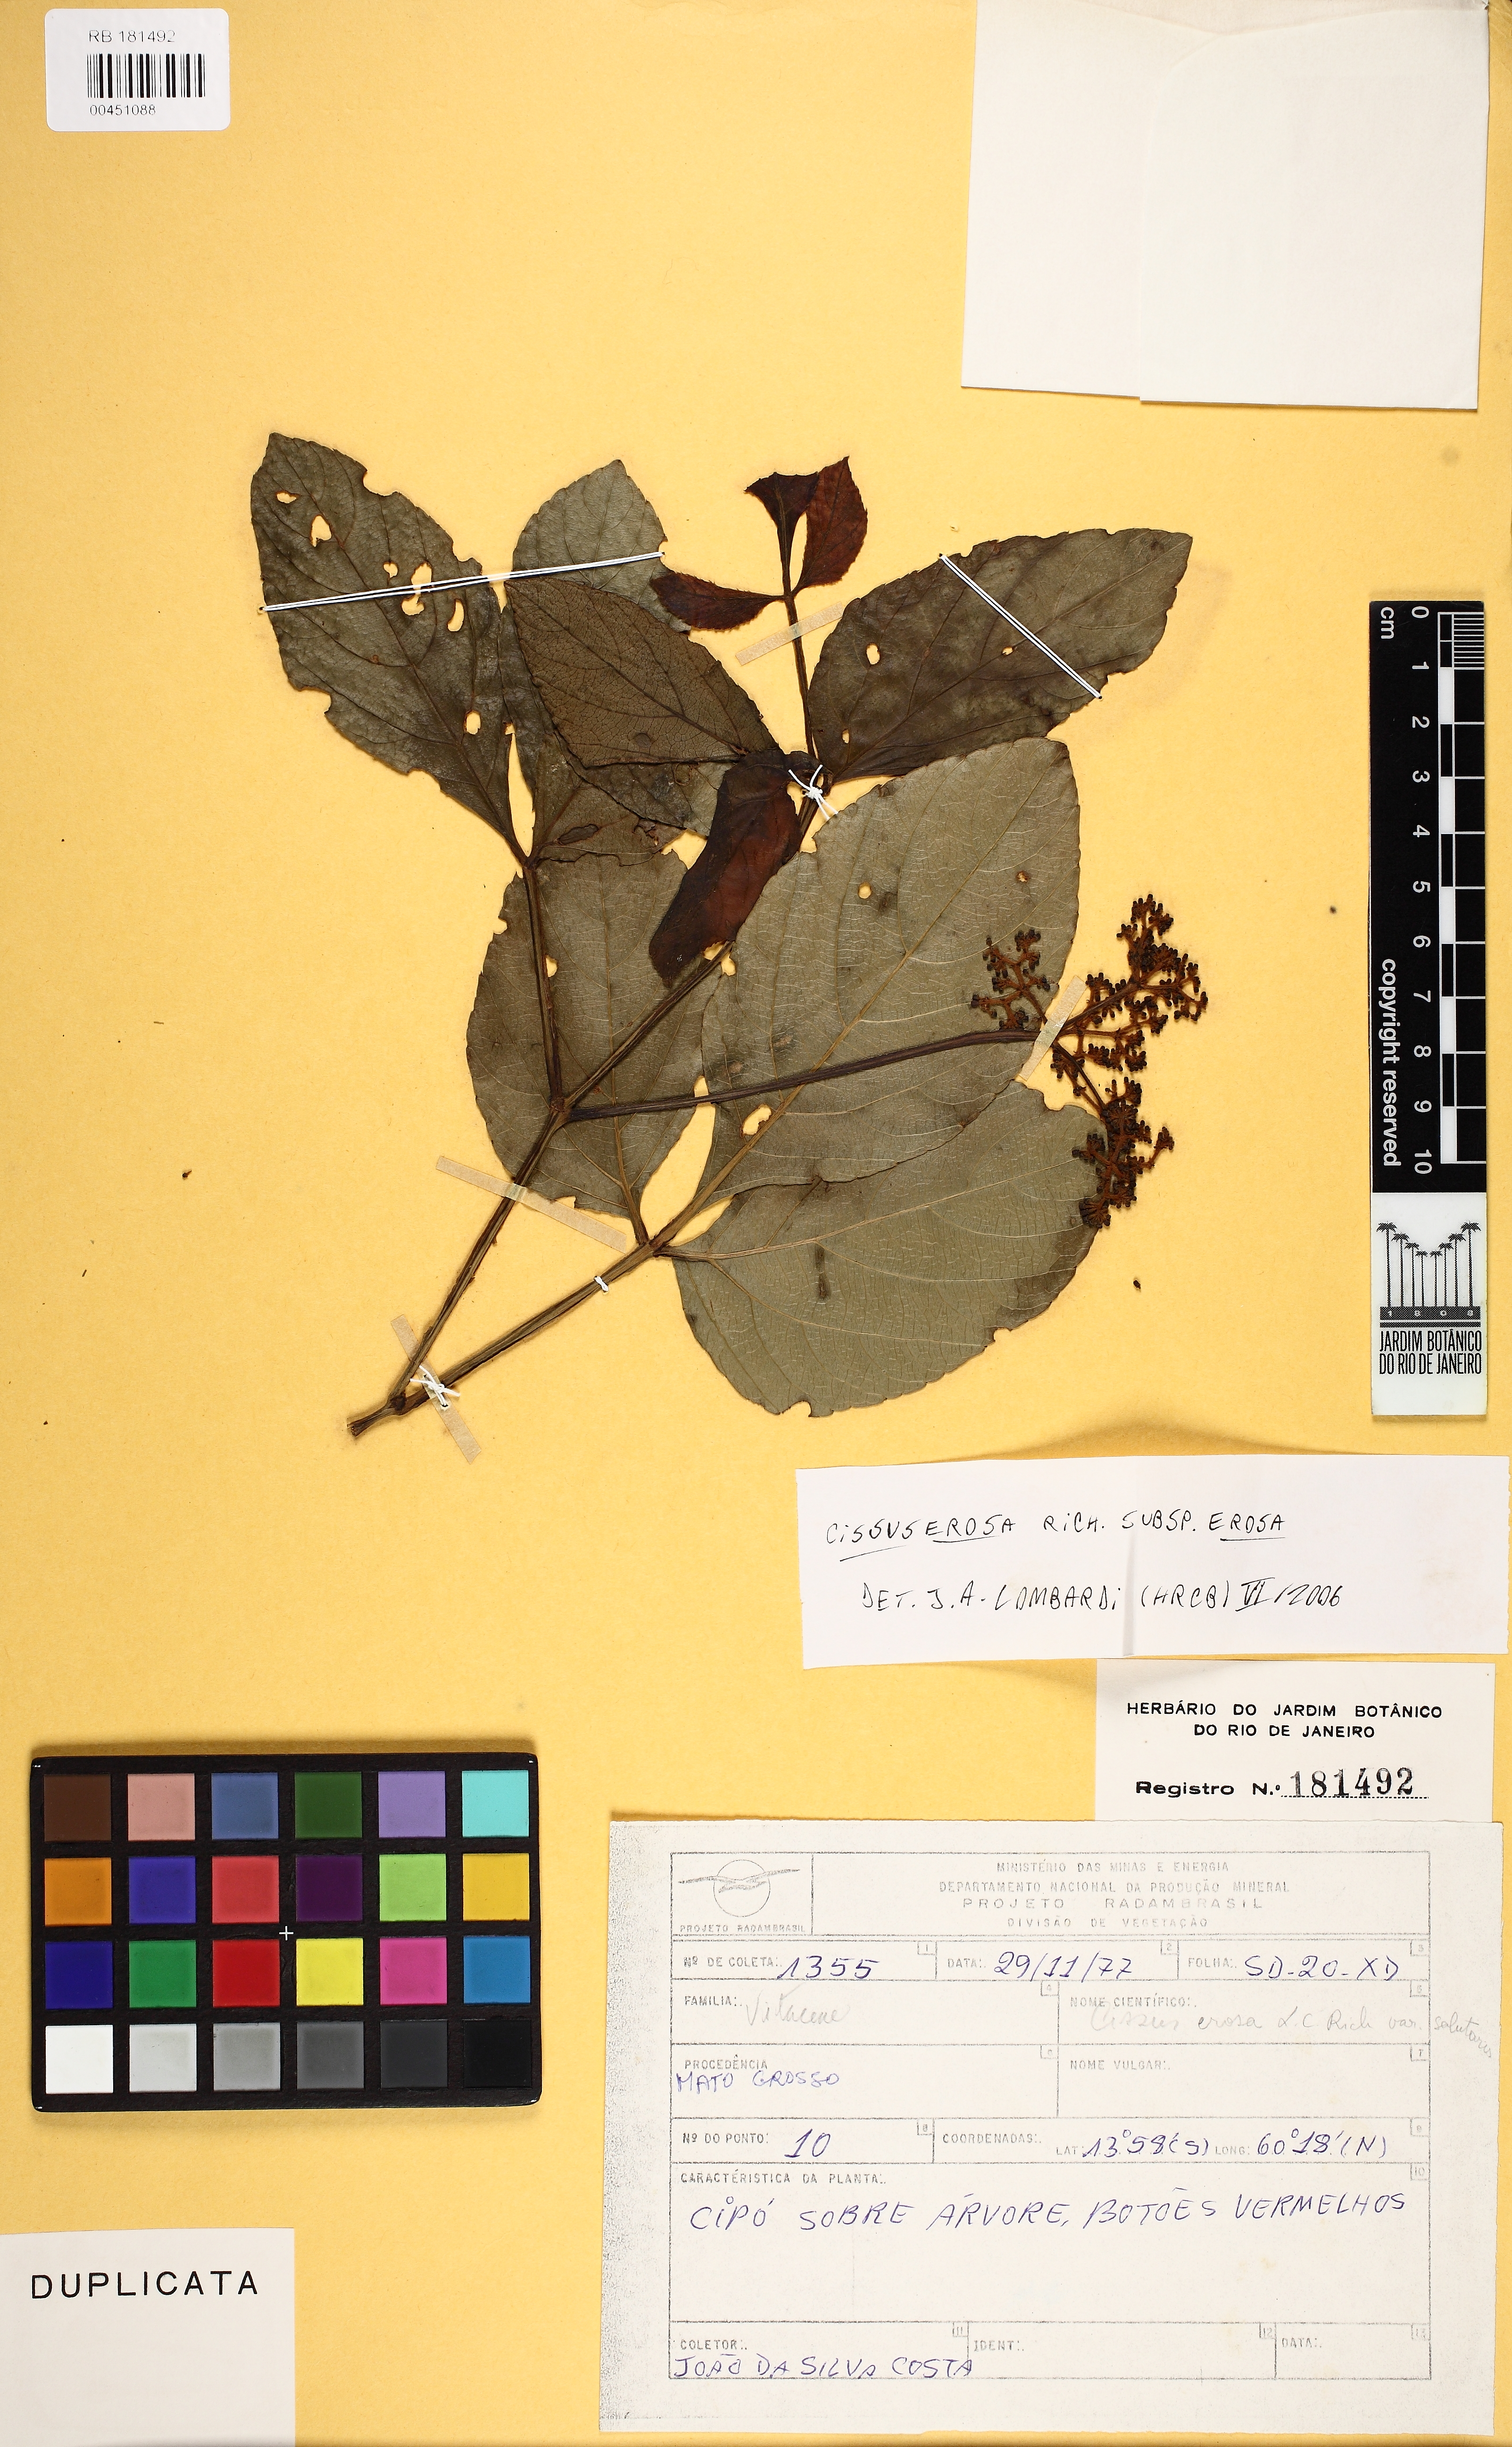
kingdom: Plantae
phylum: Tracheophyta
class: Magnoliopsida
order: Vitales
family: Vitaceae
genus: Cissus
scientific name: Cissus erosa
